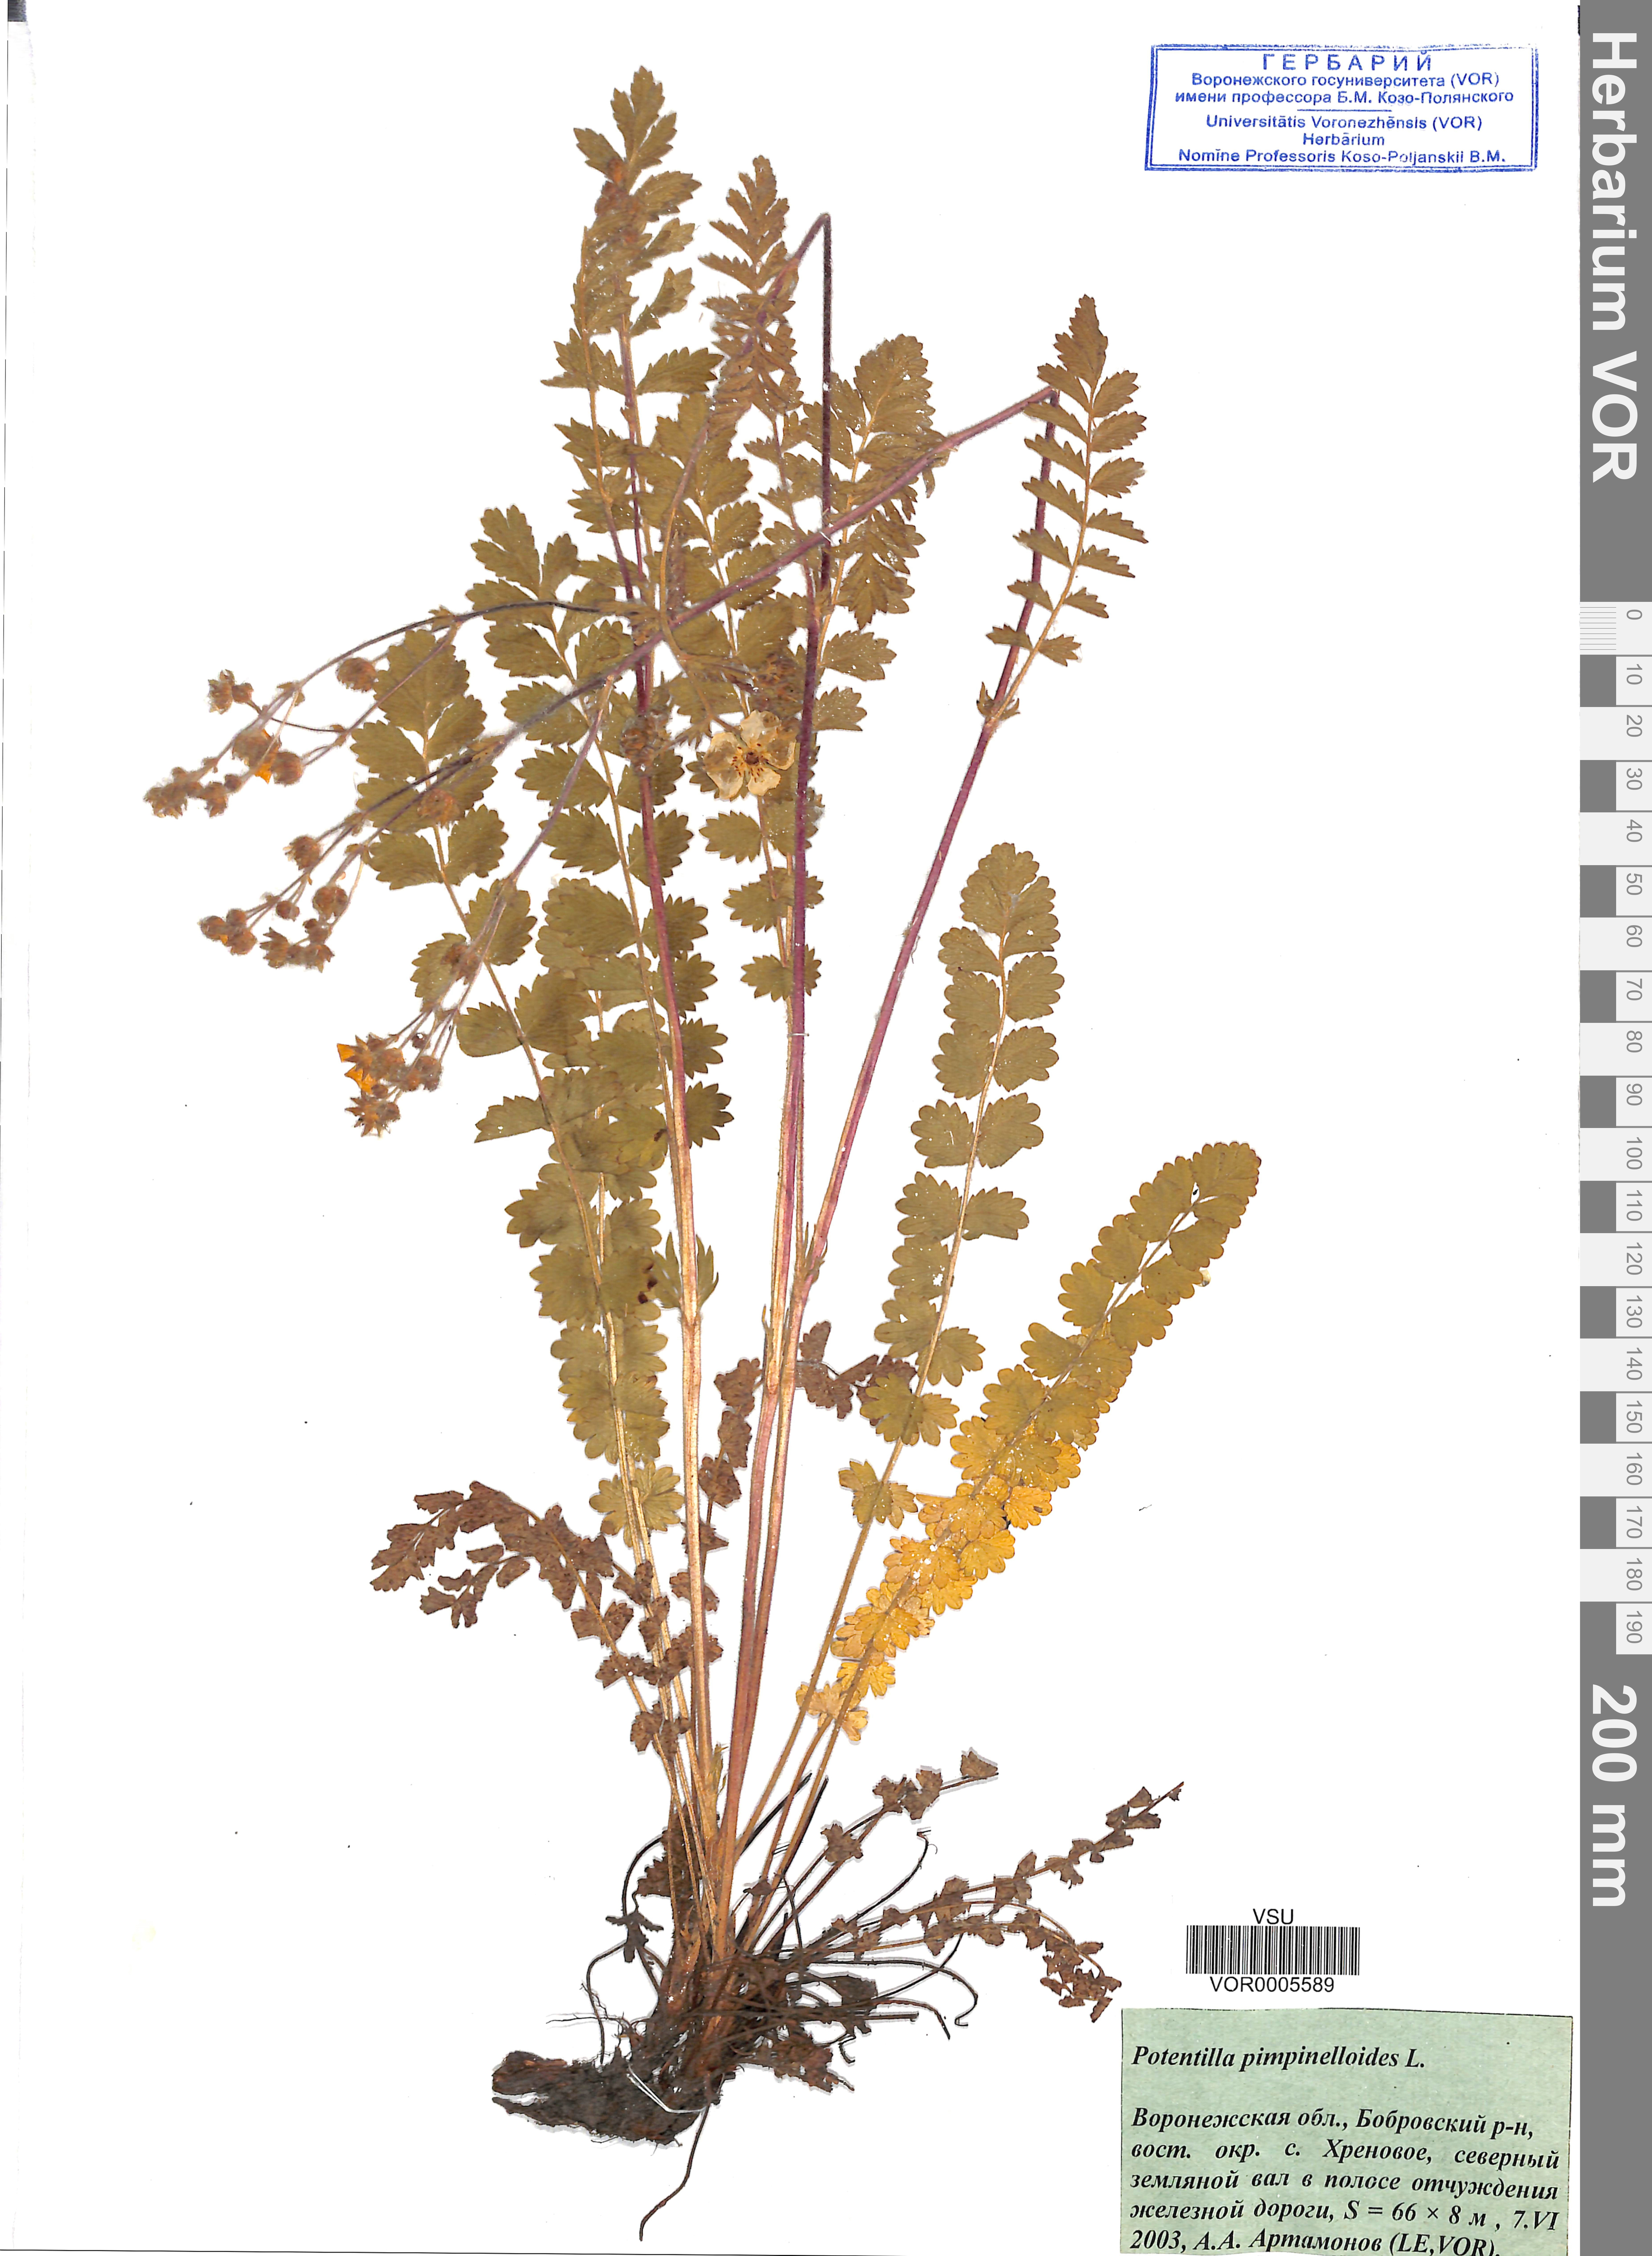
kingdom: Plantae
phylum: Tracheophyta
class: Magnoliopsida
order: Rosales
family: Rosaceae
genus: Potentilla
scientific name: Potentilla pimpinelloides
